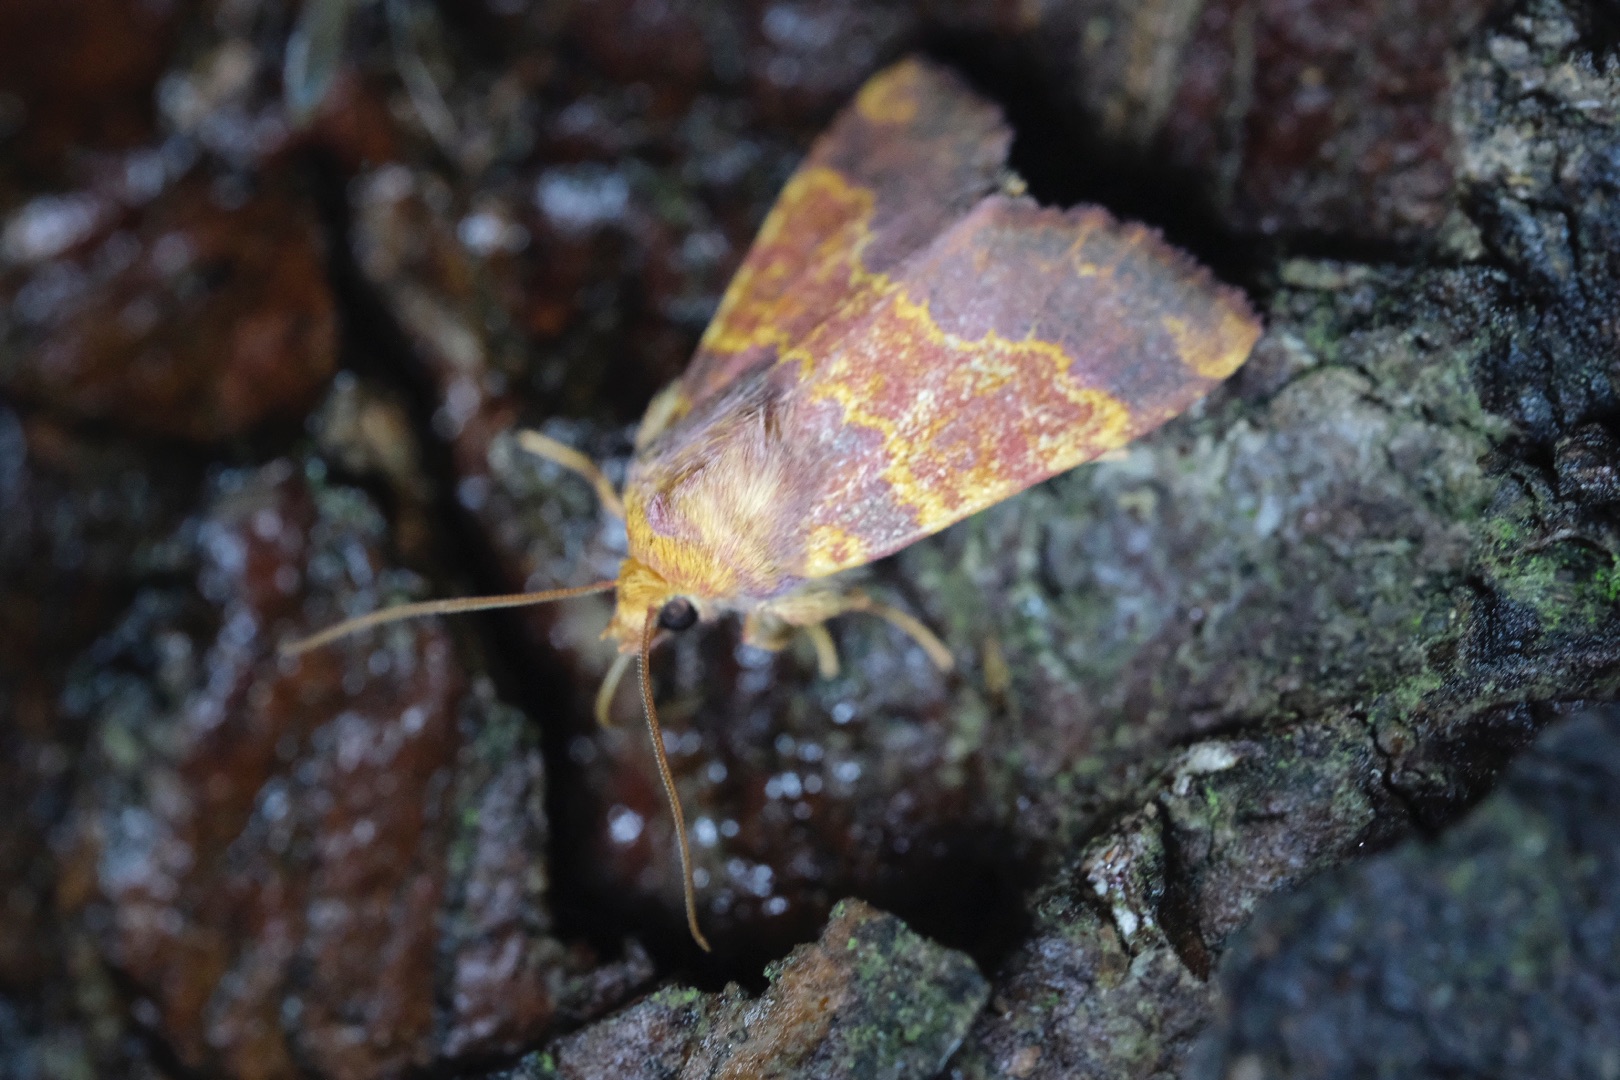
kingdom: Animalia
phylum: Arthropoda
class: Insecta
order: Lepidoptera
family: Noctuidae
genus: Tiliacea
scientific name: Tiliacea aurago
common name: Guldugle
